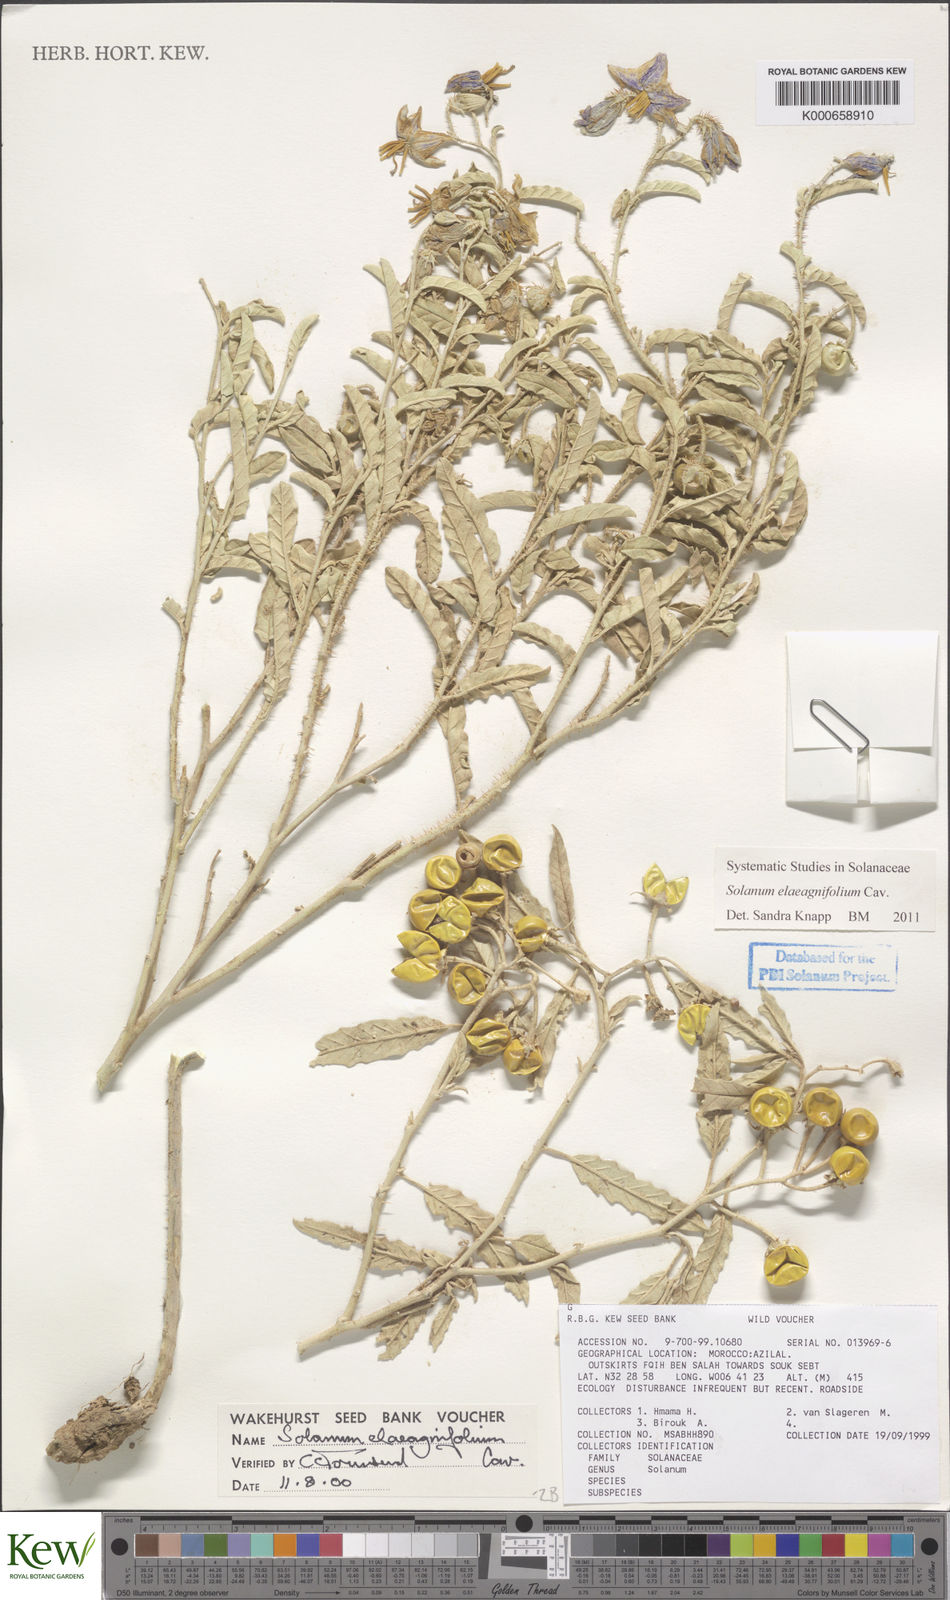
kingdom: Plantae
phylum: Tracheophyta
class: Magnoliopsida
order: Solanales
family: Solanaceae
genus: Solanum
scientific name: Solanum elaeagnifolium
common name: Silverleaf nightshade
